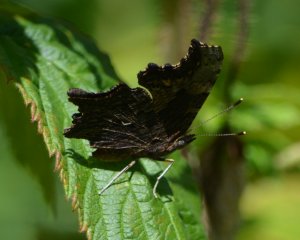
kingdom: Animalia
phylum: Arthropoda
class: Insecta
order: Lepidoptera
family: Nymphalidae
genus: Polygonia
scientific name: Polygonia progne
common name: Gray Comma
